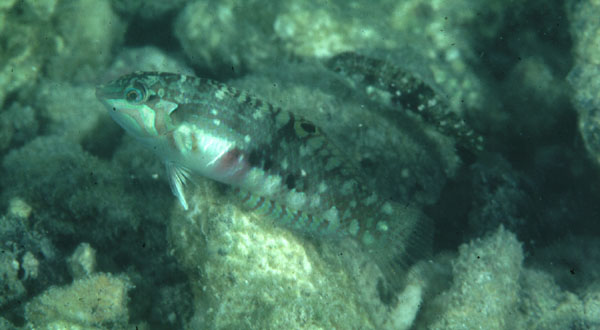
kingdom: Animalia
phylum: Chordata
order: Perciformes
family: Labridae
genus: Halichoeres
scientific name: Halichoeres nebulosus
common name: Clouded wrasse
